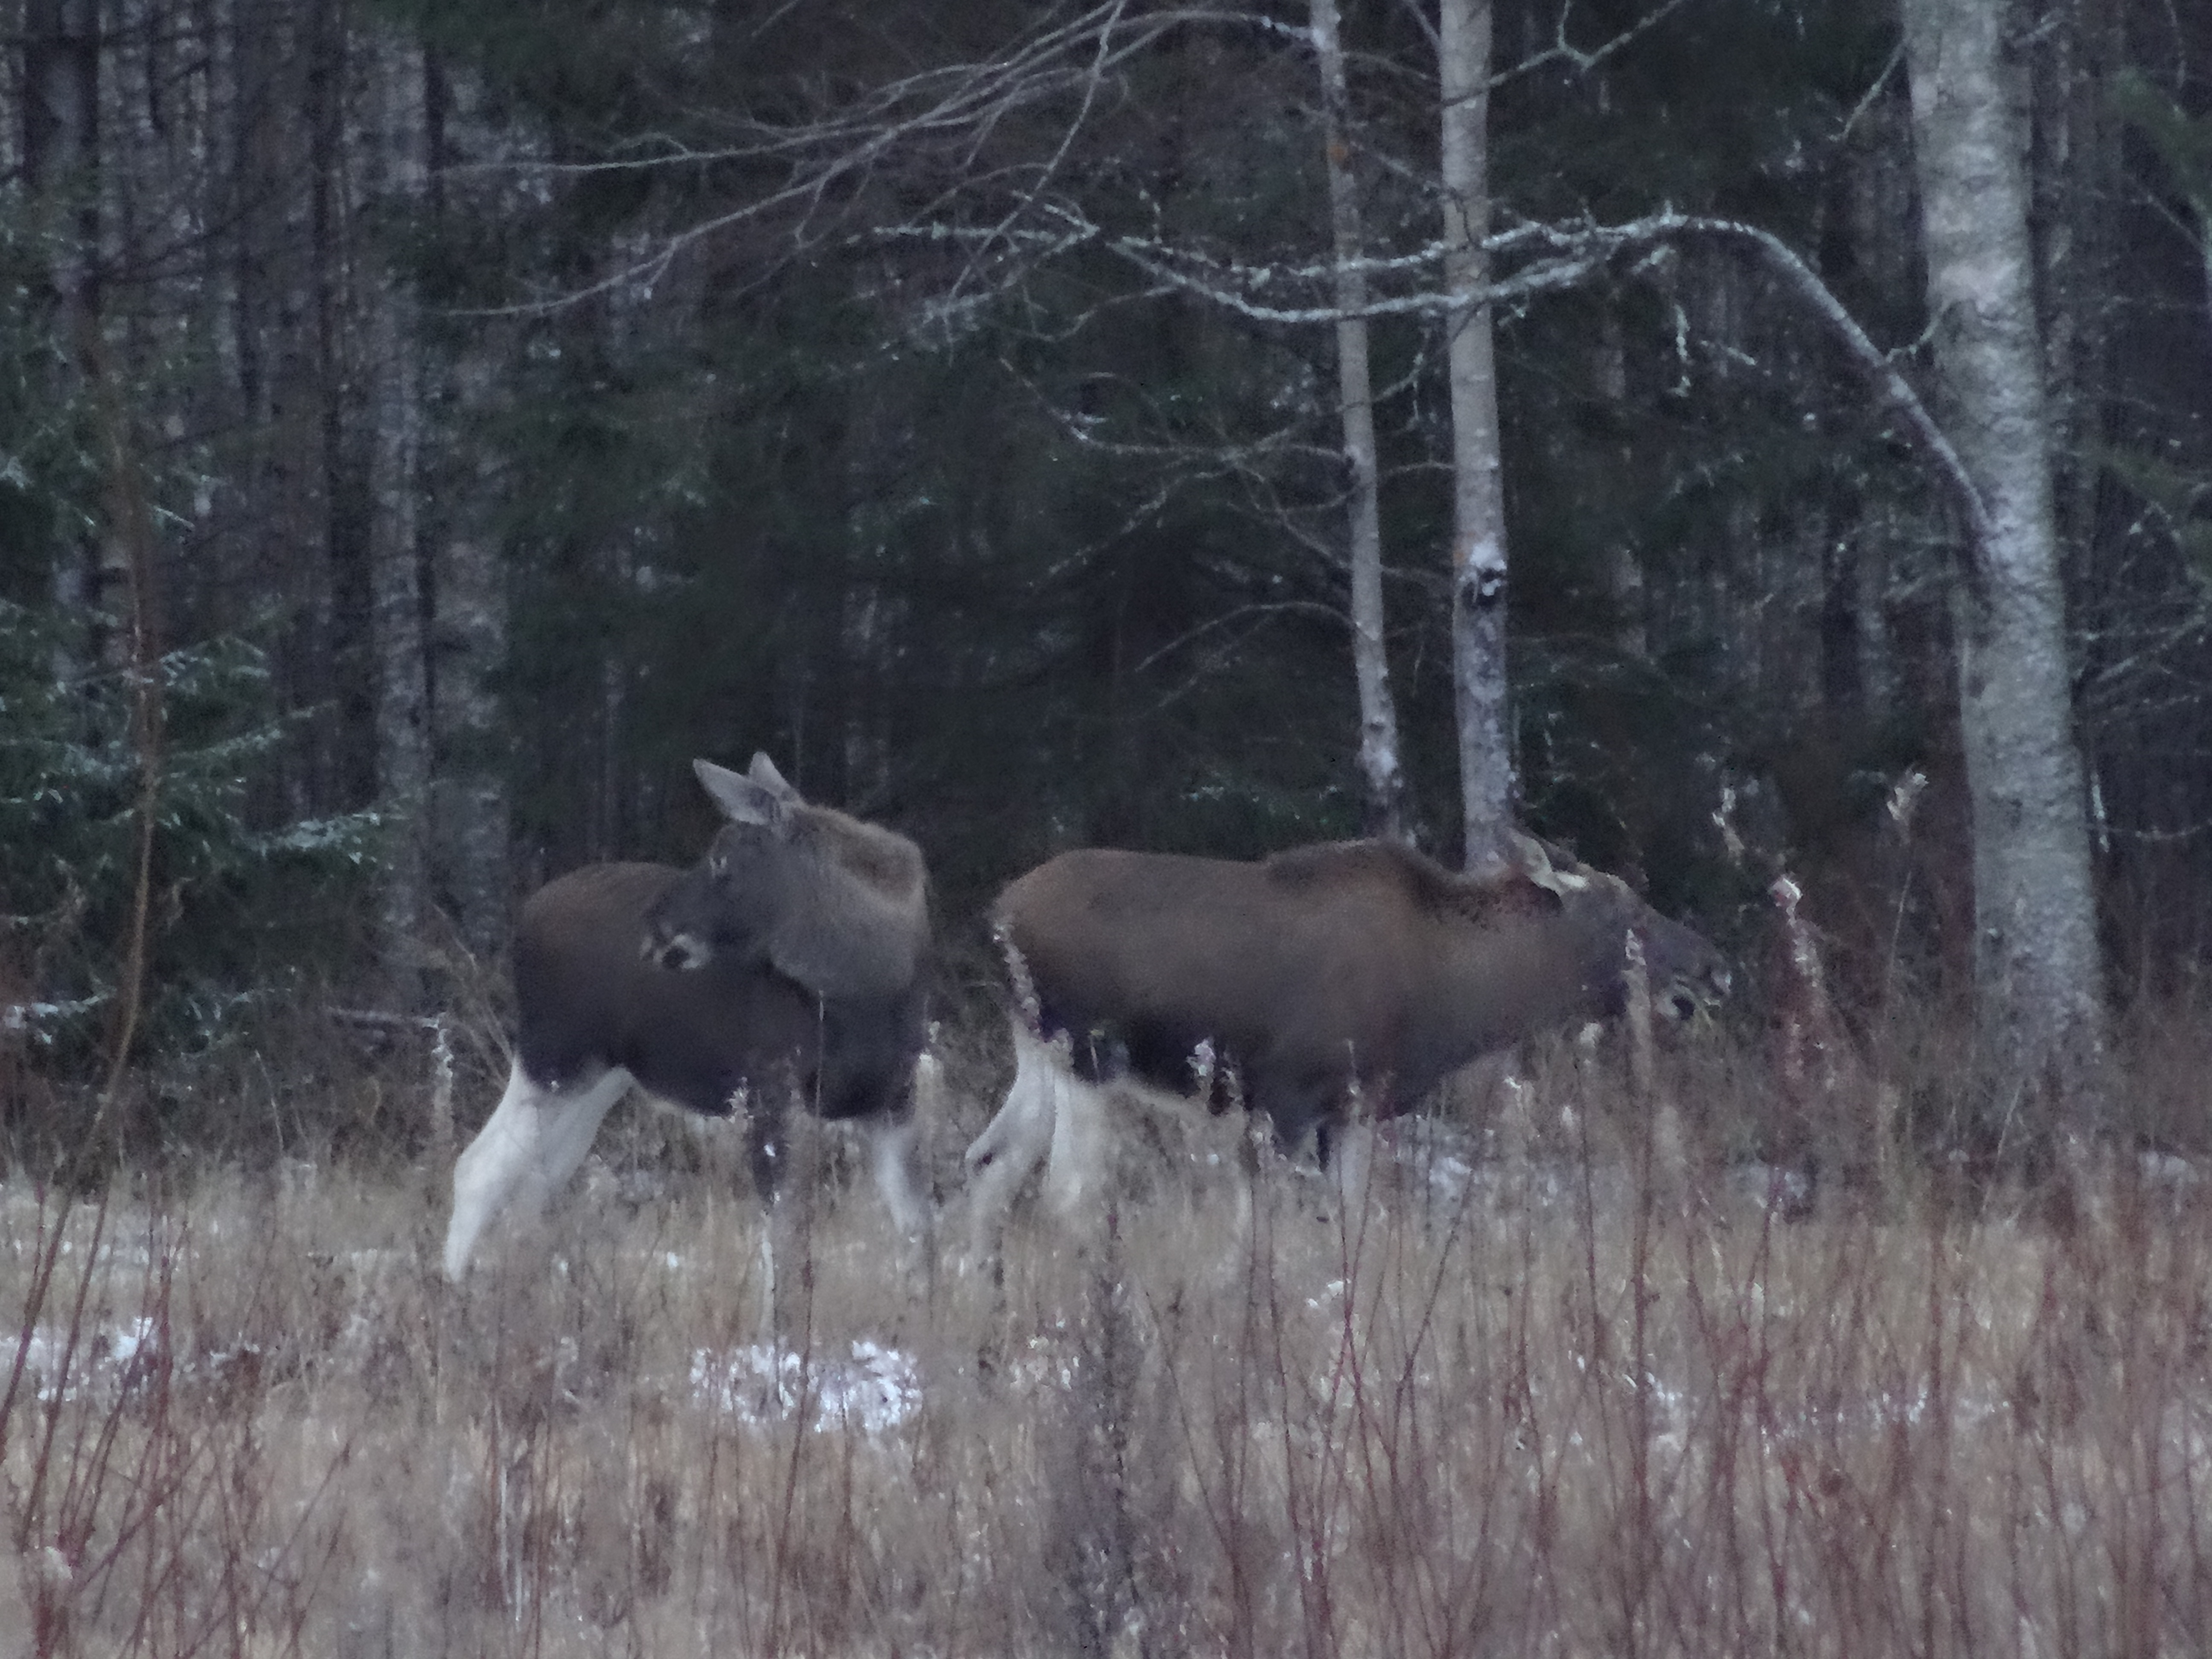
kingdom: Animalia
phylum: Chordata
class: Mammalia
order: Artiodactyla
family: Cervidae
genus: Alces
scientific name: Alces alces
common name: Moose
